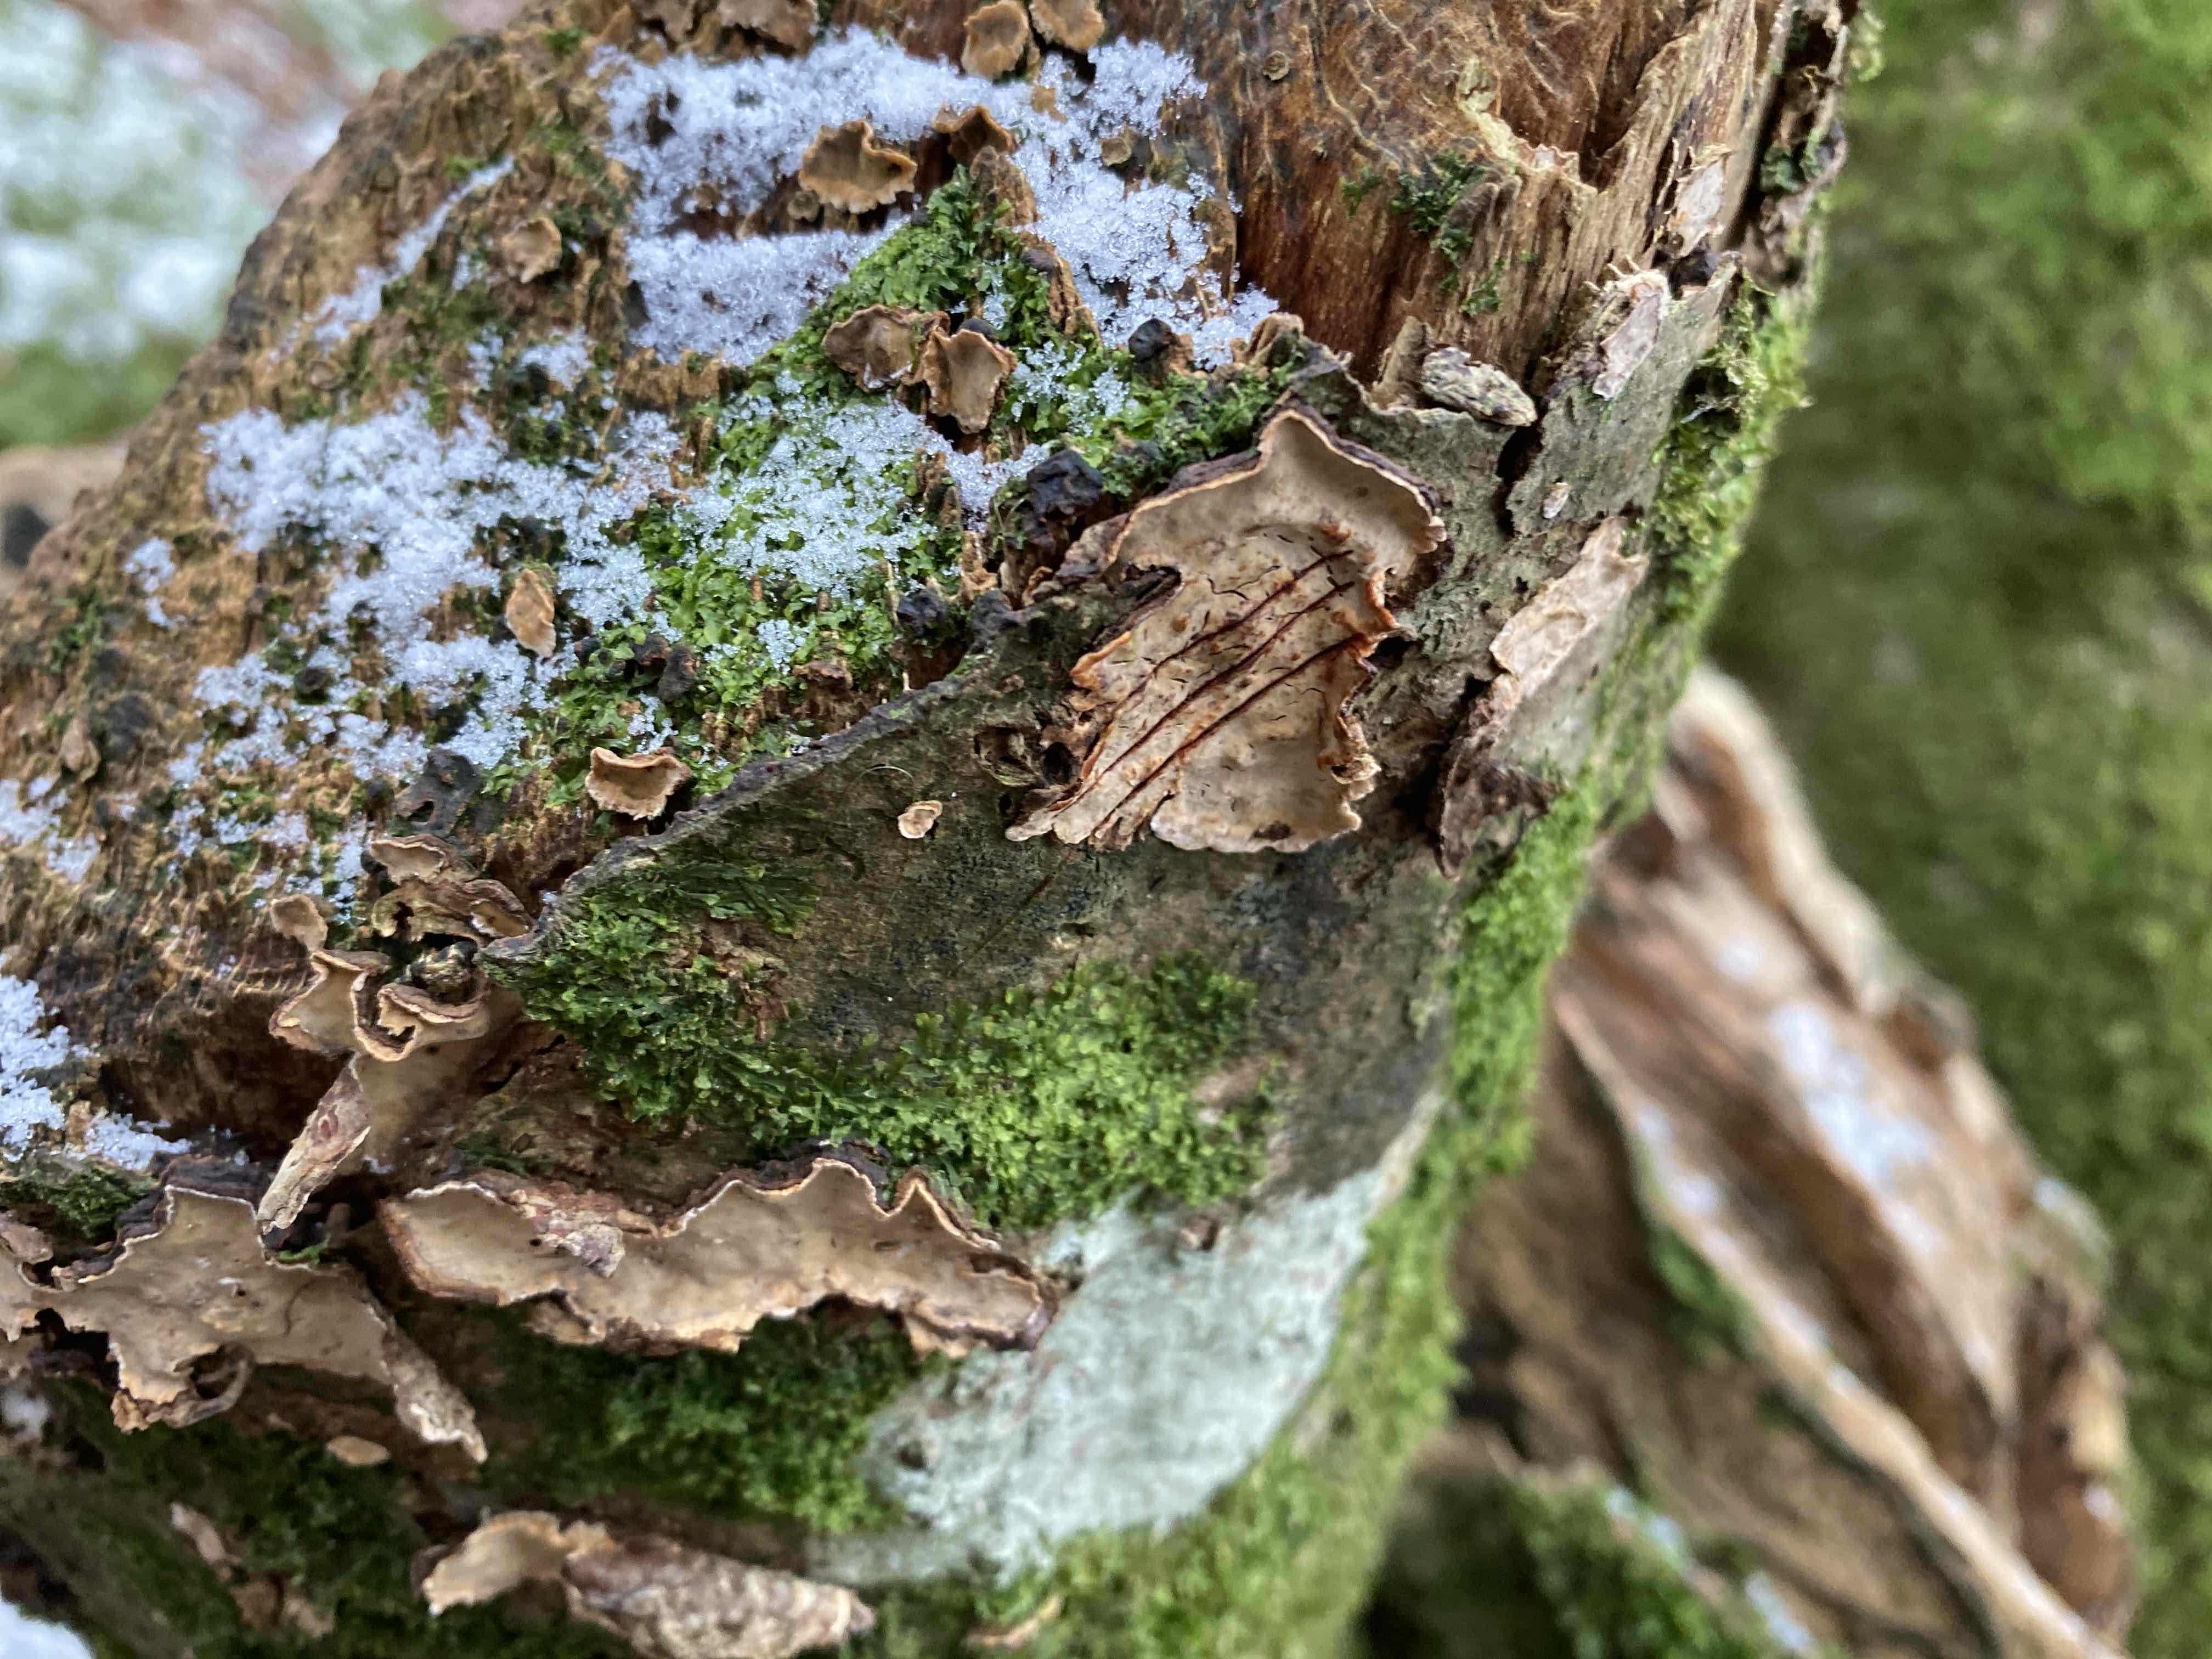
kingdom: Fungi
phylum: Basidiomycota
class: Agaricomycetes
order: Russulales
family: Stereaceae
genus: Stereum
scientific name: Stereum rugosum
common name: rynket lædersvamp
